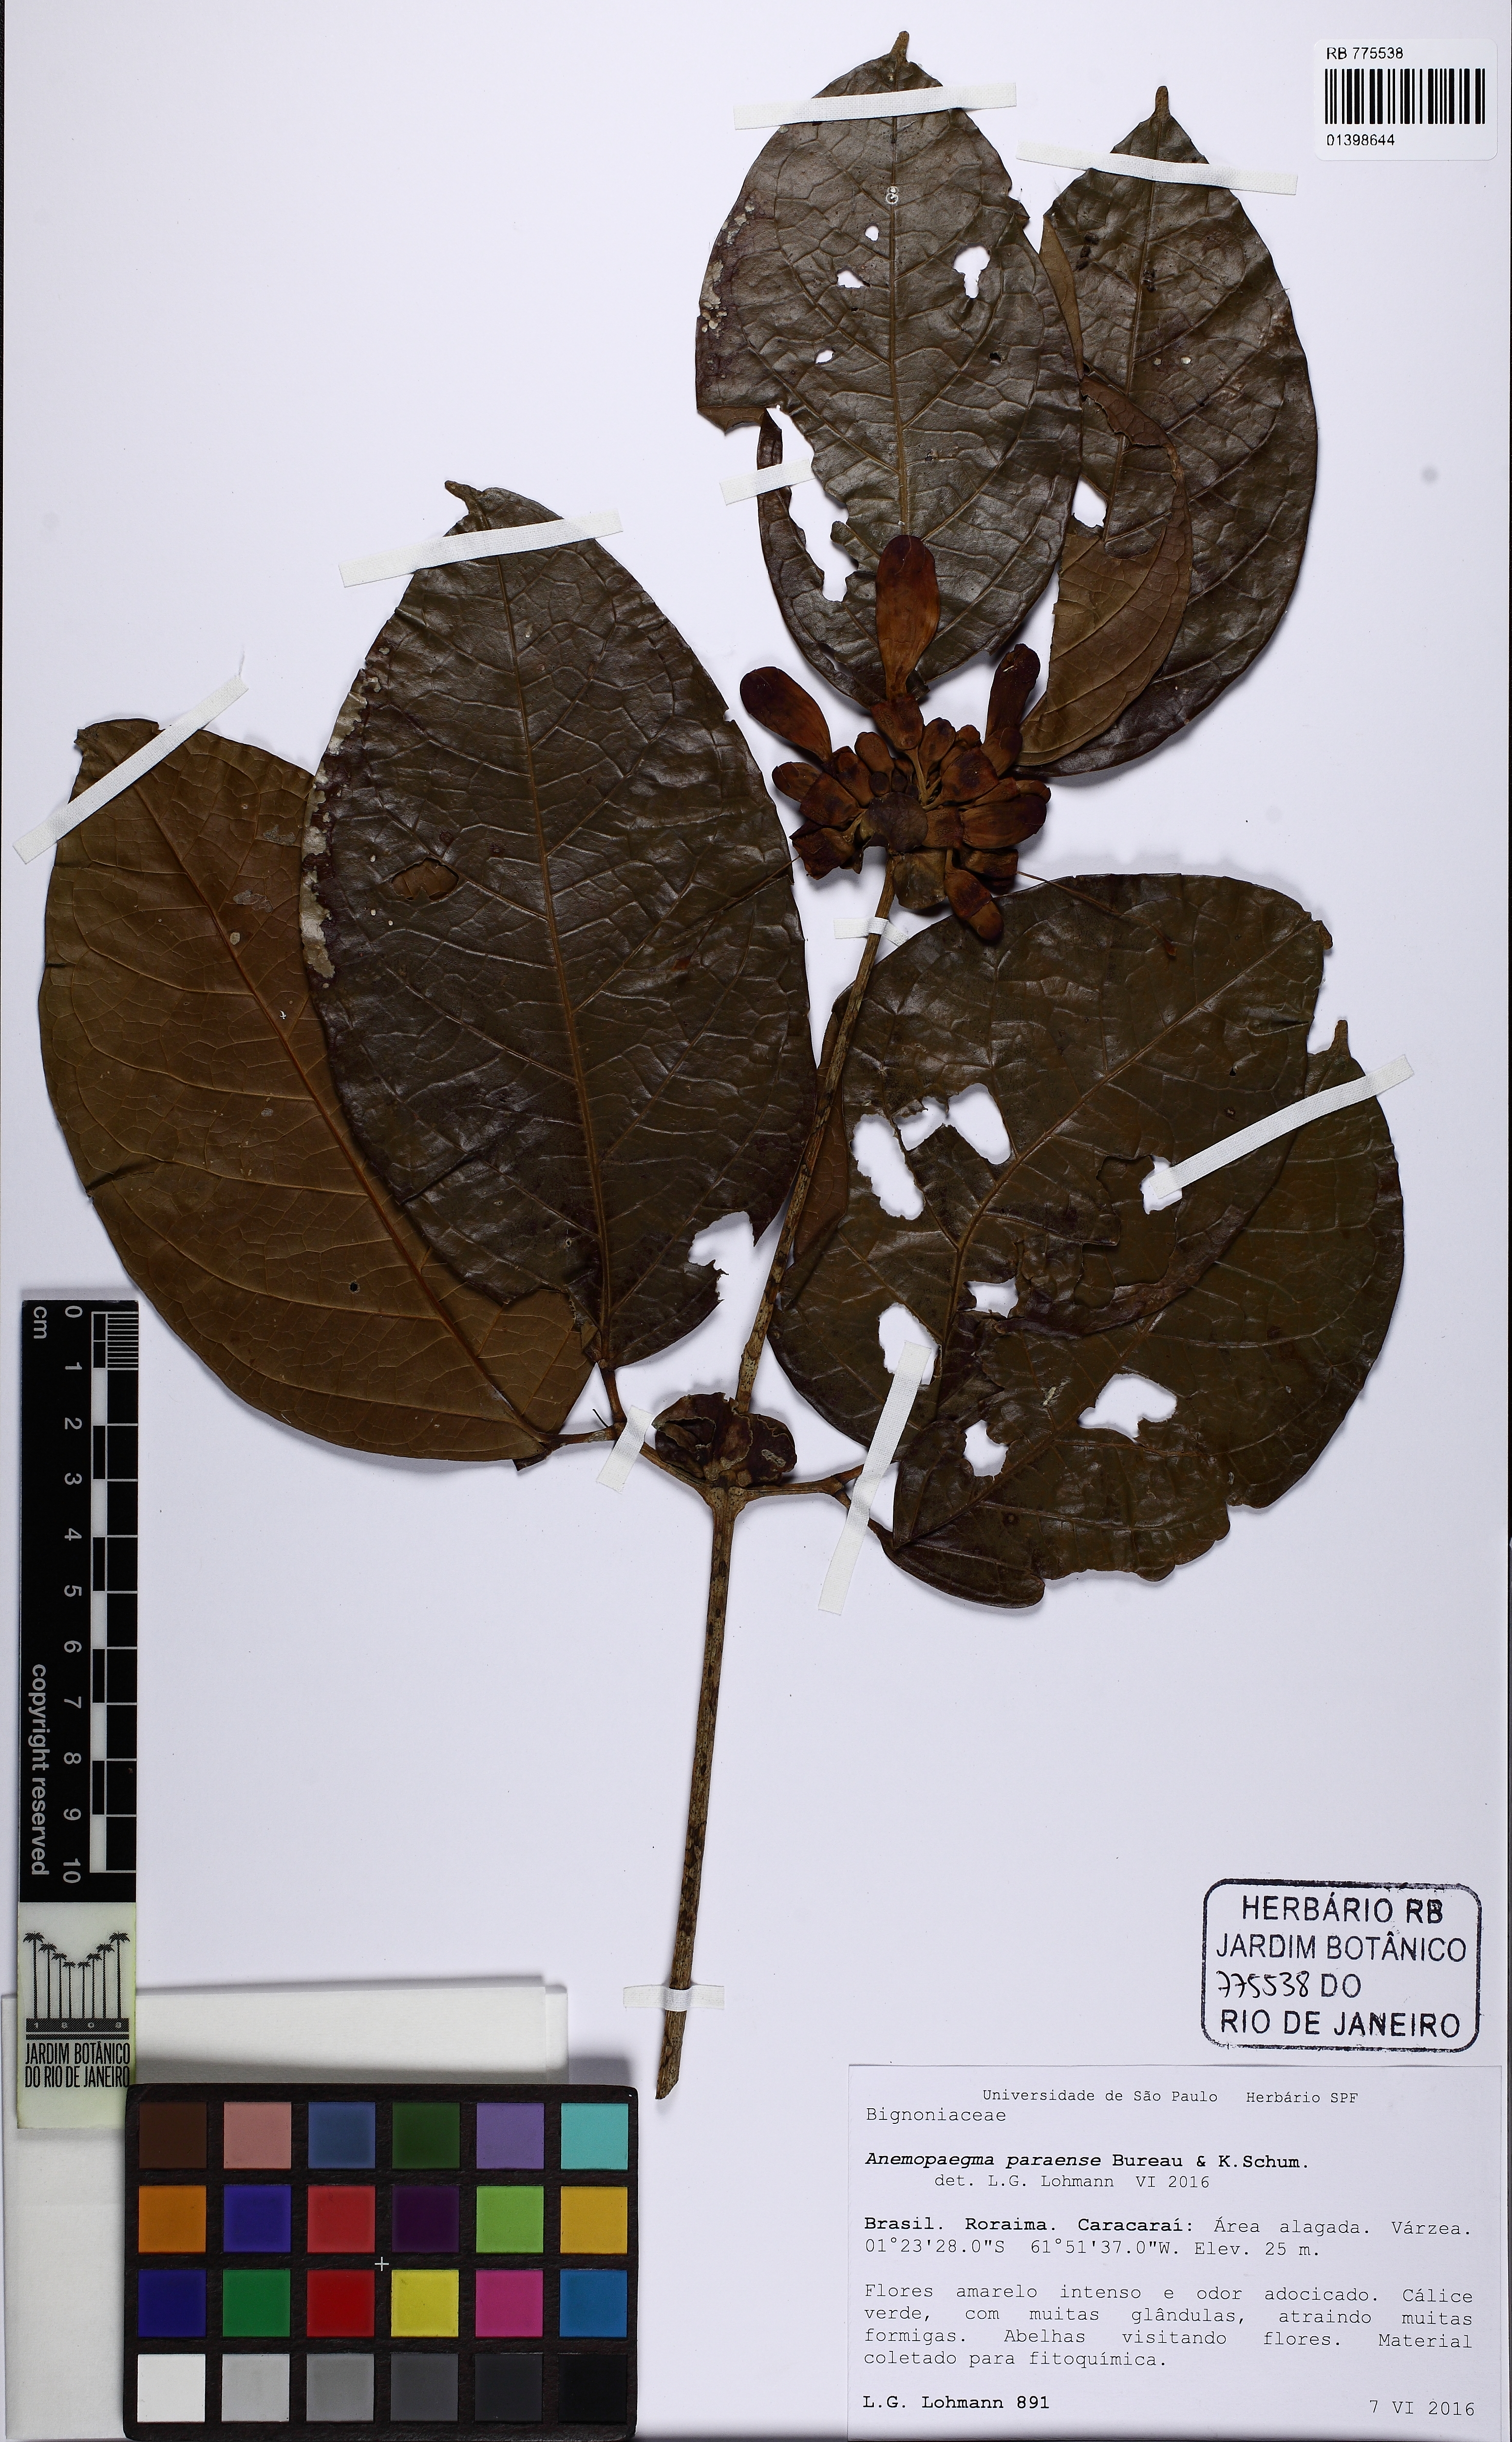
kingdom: Plantae
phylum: Tracheophyta
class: Magnoliopsida
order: Lamiales
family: Bignoniaceae
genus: Anemopaegma
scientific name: Anemopaegma paraense
